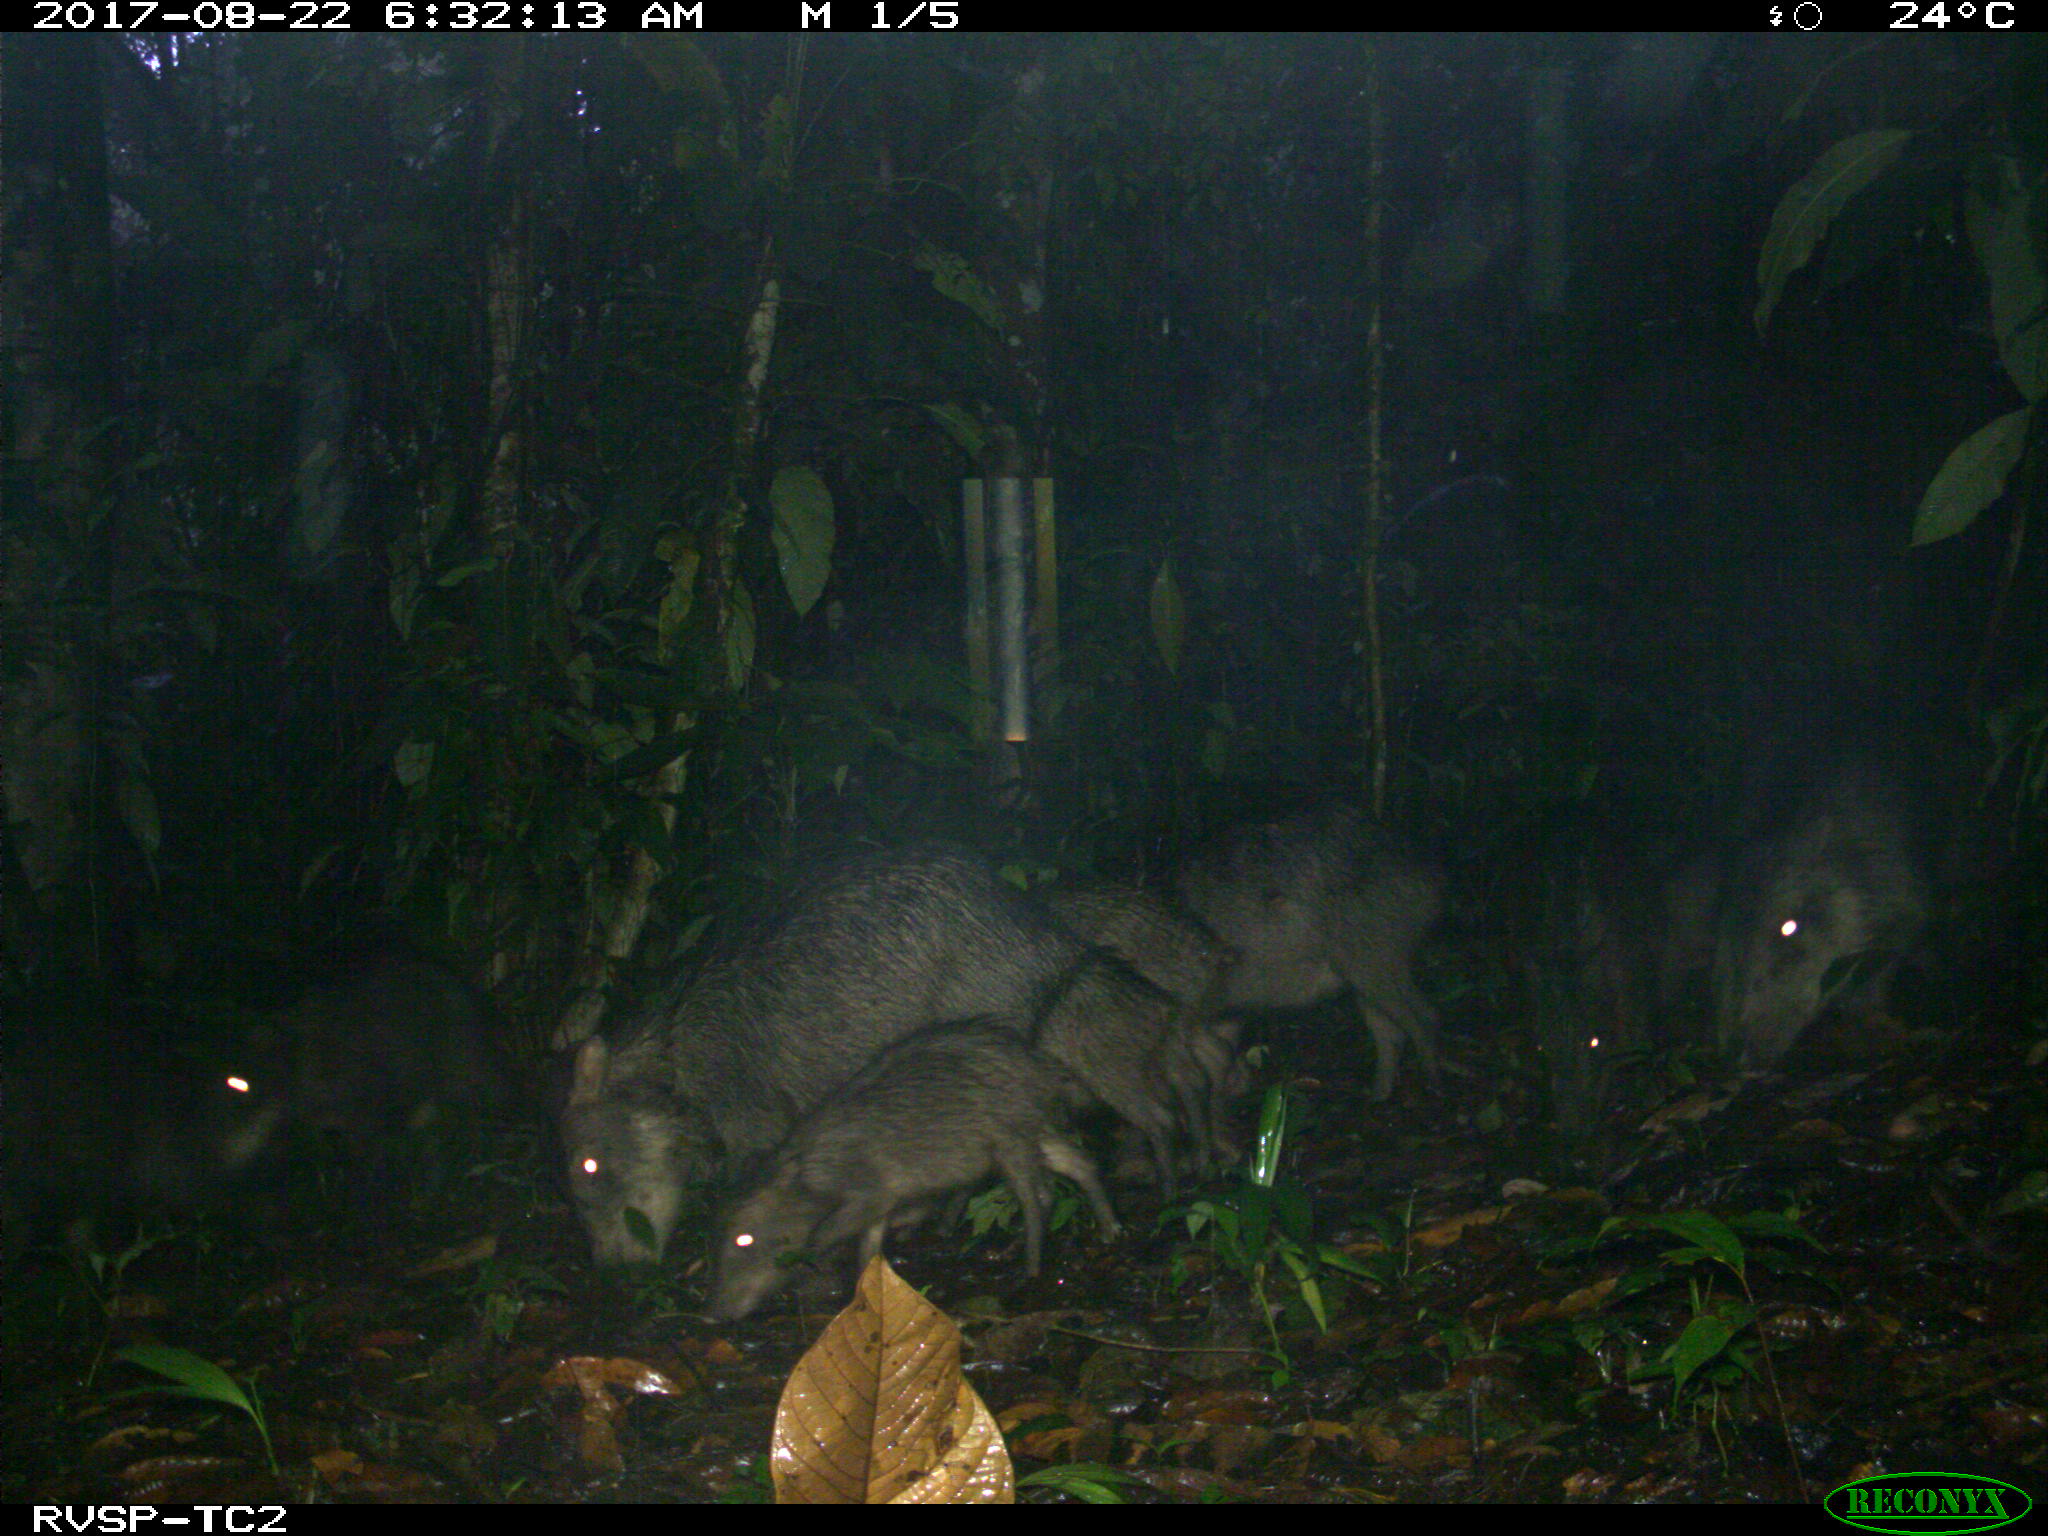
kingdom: Animalia
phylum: Chordata
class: Mammalia
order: Artiodactyla
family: Tayassuidae
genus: Tayassu
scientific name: Tayassu pecari
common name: White-lipped peccary
